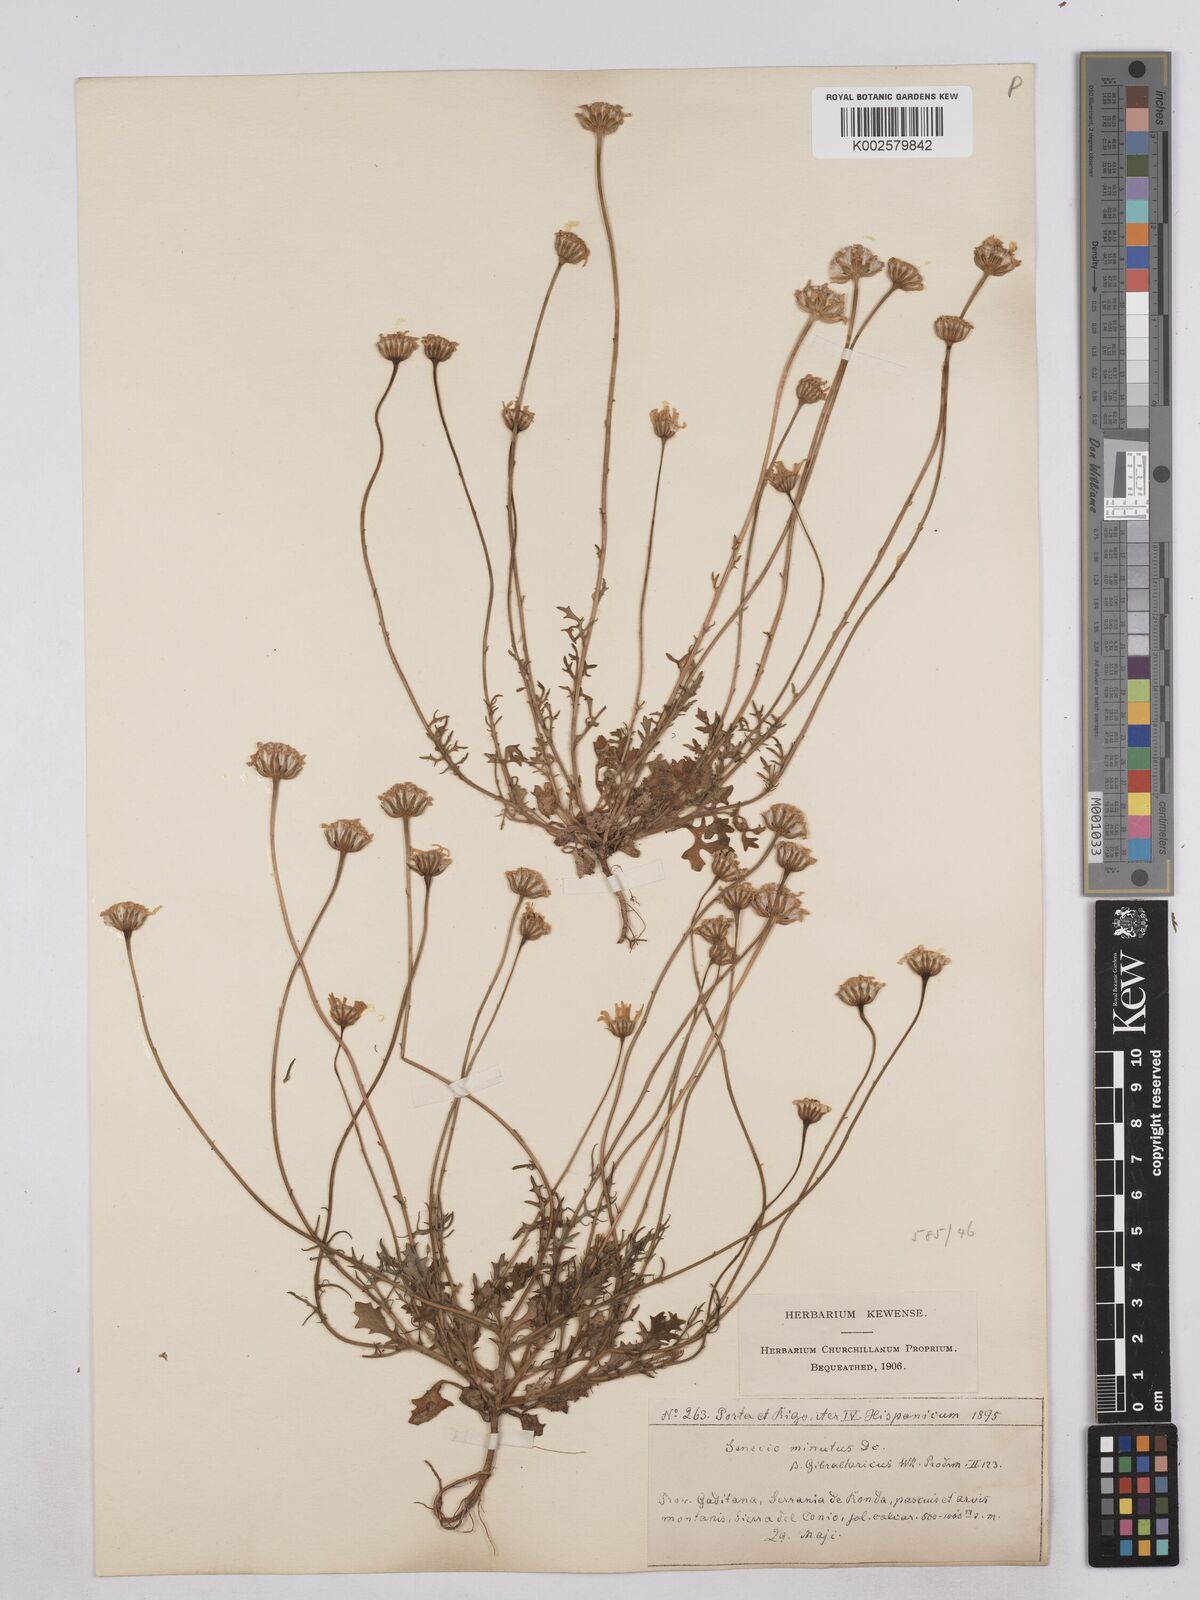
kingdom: Plantae
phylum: Tracheophyta
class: Magnoliopsida
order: Asterales
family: Asteraceae
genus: Jacobaea
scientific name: Jacobaea minuta
